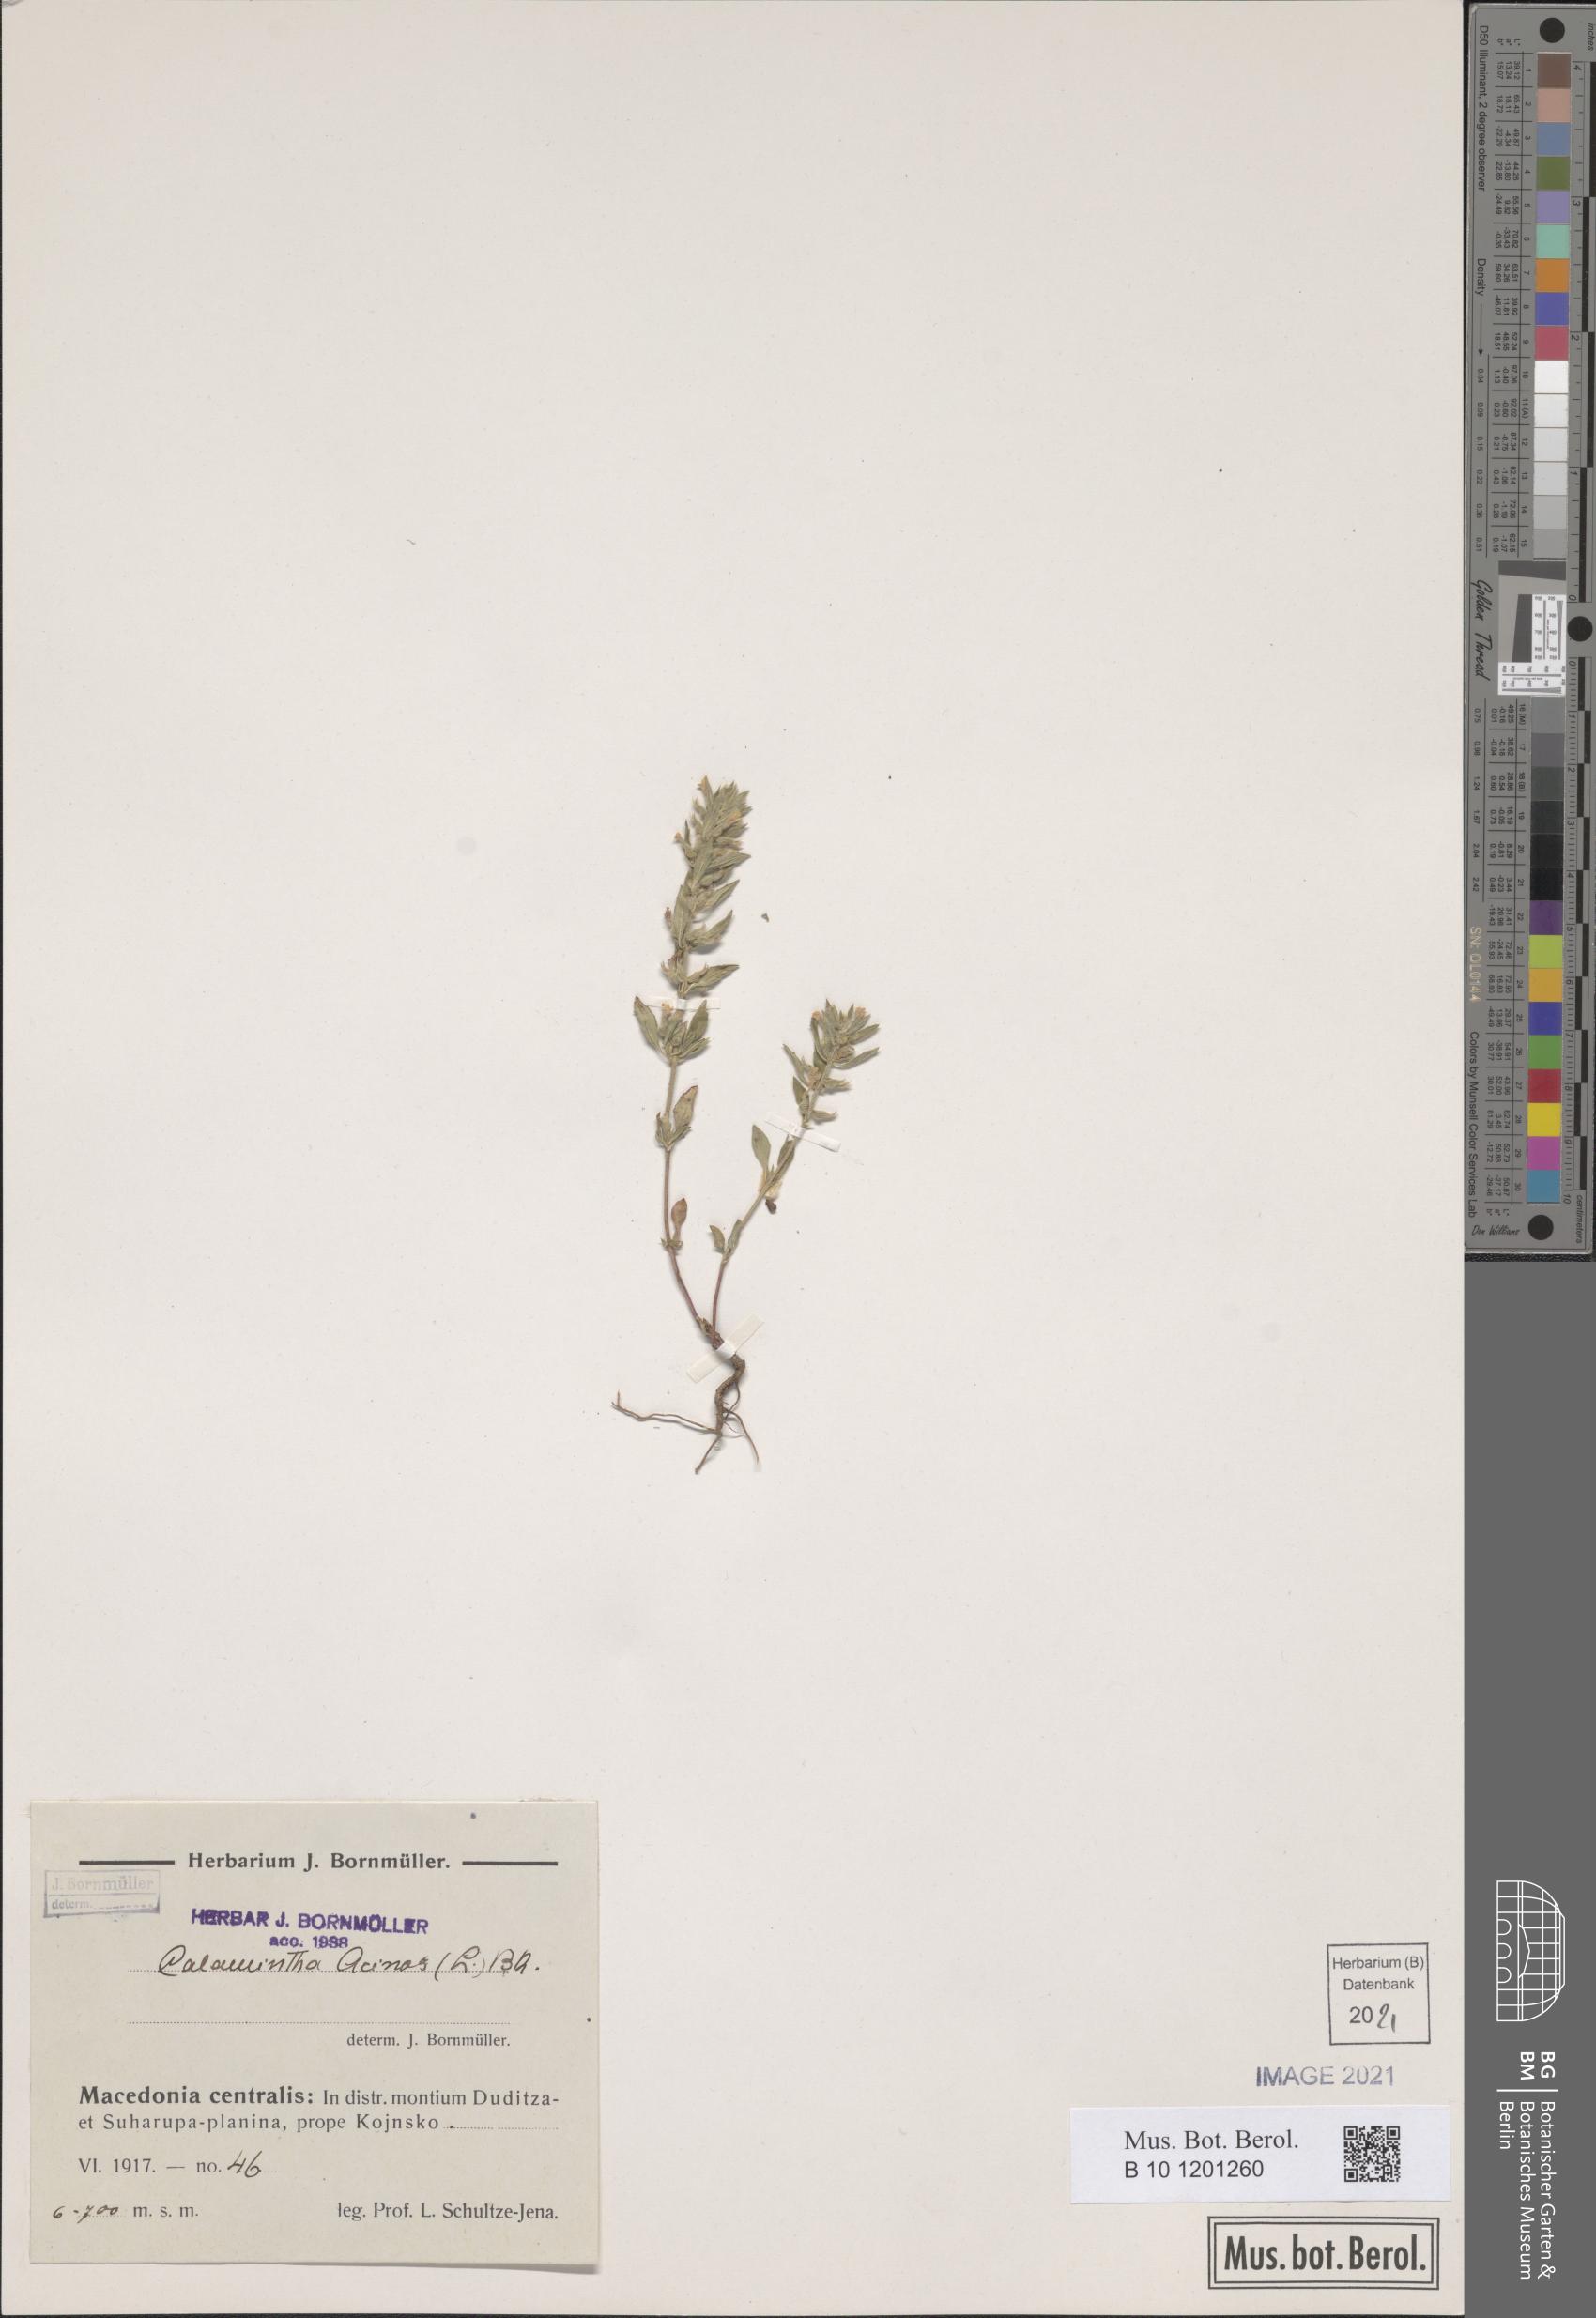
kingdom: Plantae
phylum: Tracheophyta
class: Magnoliopsida
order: Lamiales
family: Lamiaceae
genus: Clinopodium
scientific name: Clinopodium acinos
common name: Basil thyme
